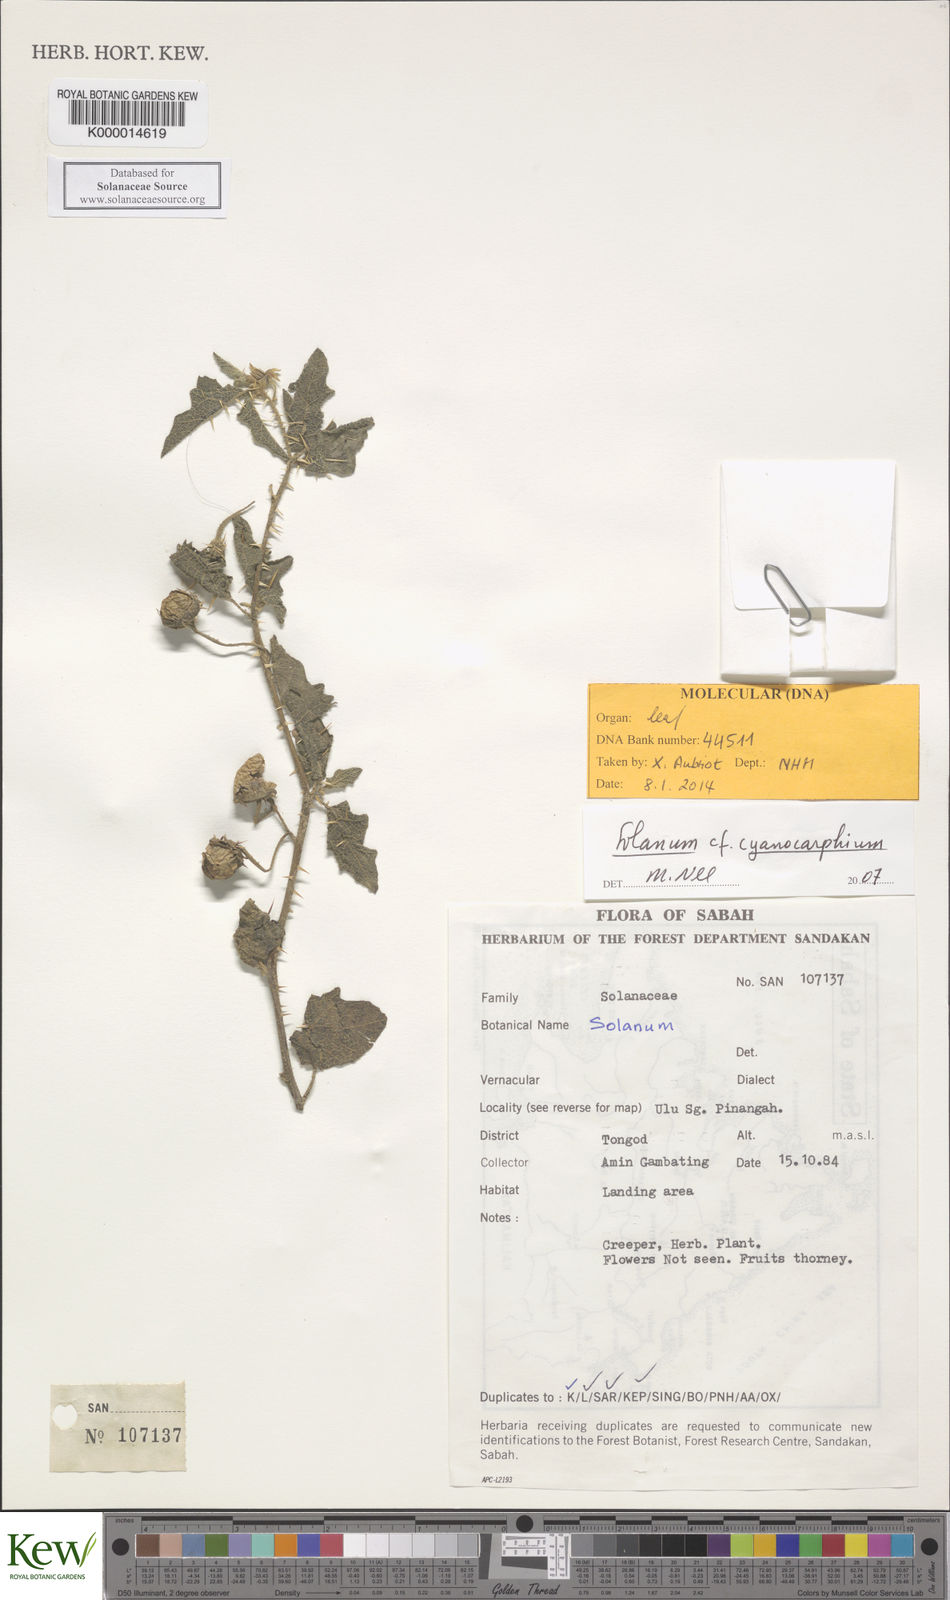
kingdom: Plantae
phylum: Tracheophyta
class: Magnoliopsida
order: Solanales
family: Solanaceae
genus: Solanum
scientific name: Solanum cyanocarphium
